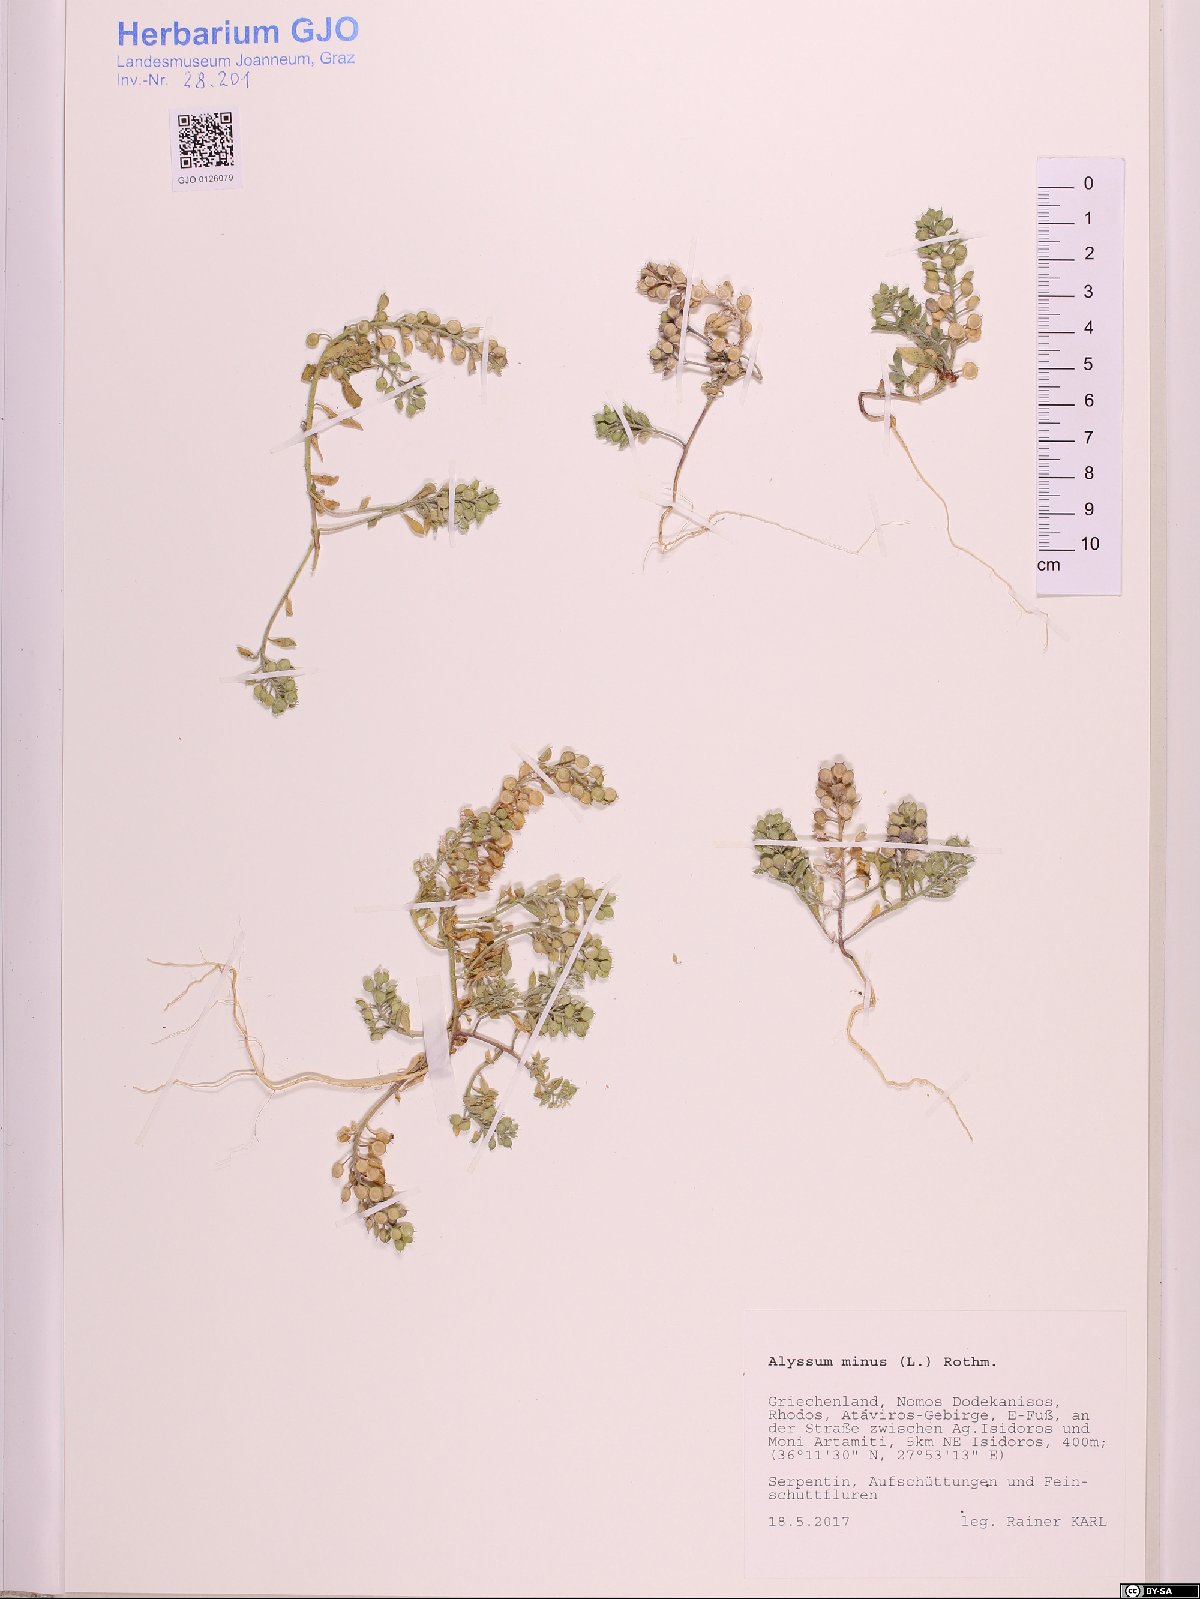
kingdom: Plantae
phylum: Tracheophyta
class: Magnoliopsida
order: Brassicales
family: Brassicaceae
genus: Alyssum
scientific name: Alyssum simplex
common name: Alyssum
